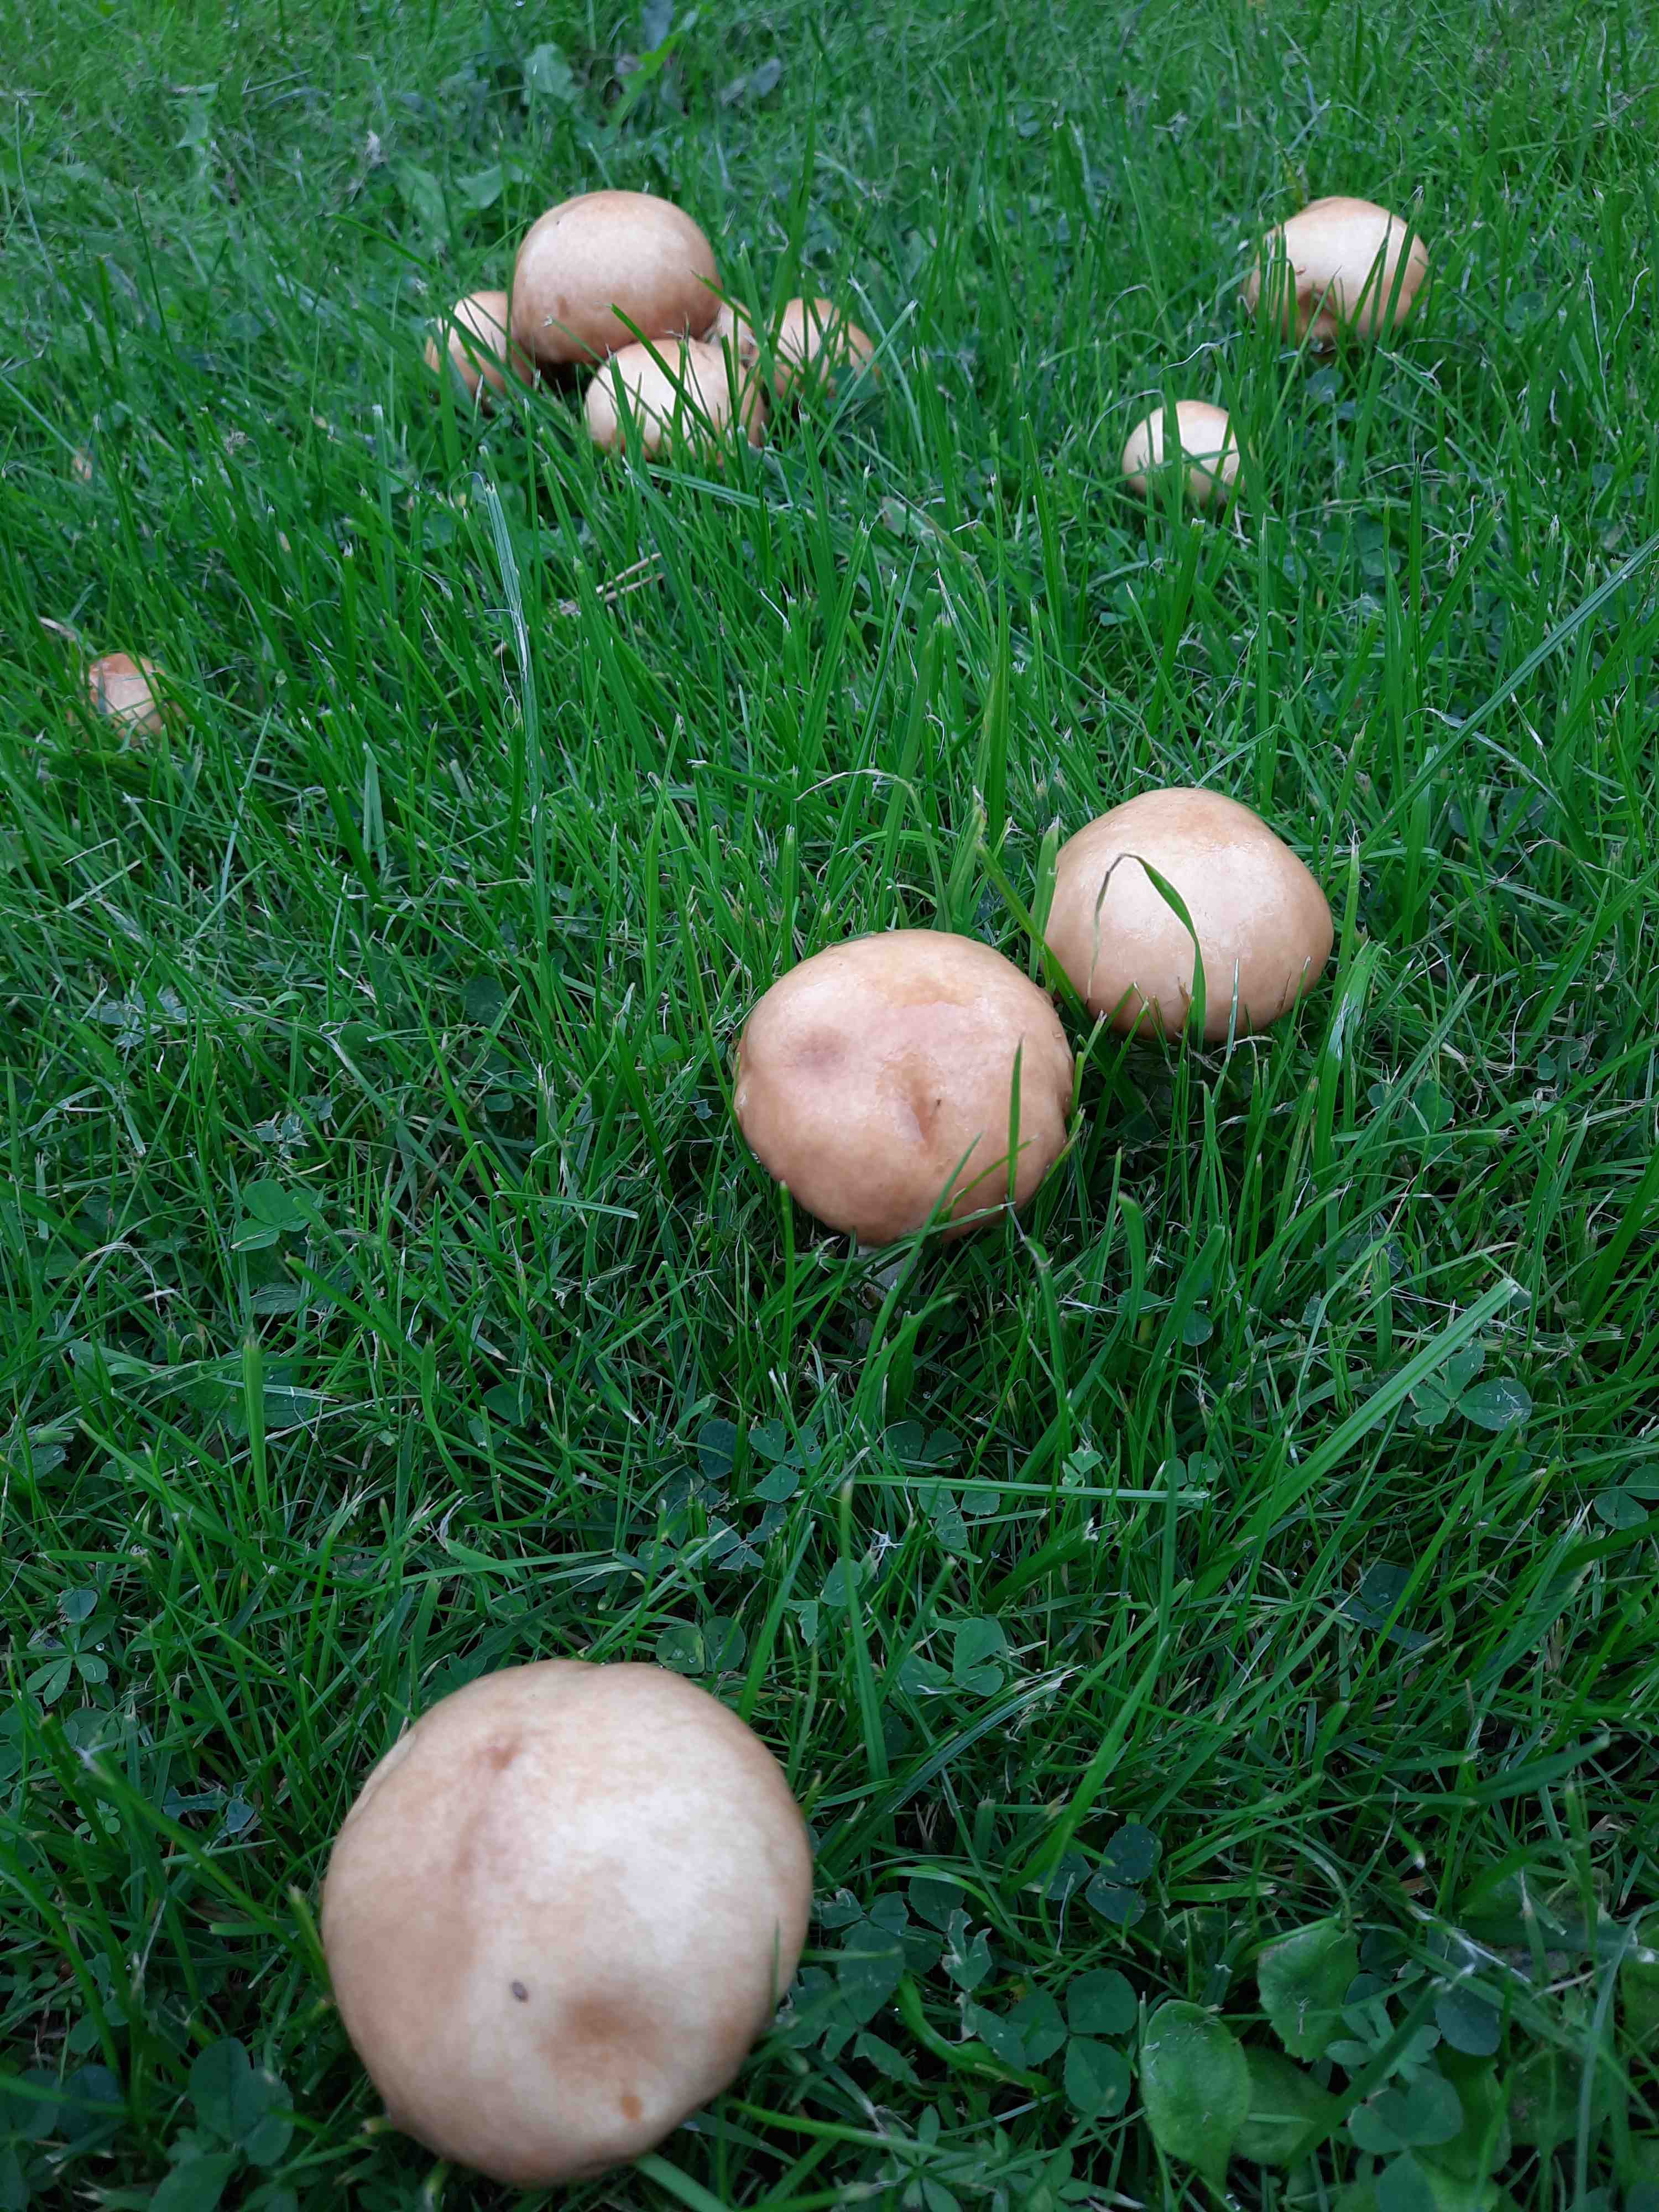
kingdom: Fungi
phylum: Basidiomycota
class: Agaricomycetes
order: Boletales
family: Suillaceae
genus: Suillus
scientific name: Suillus granulatus
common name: kornet slimrørhat
